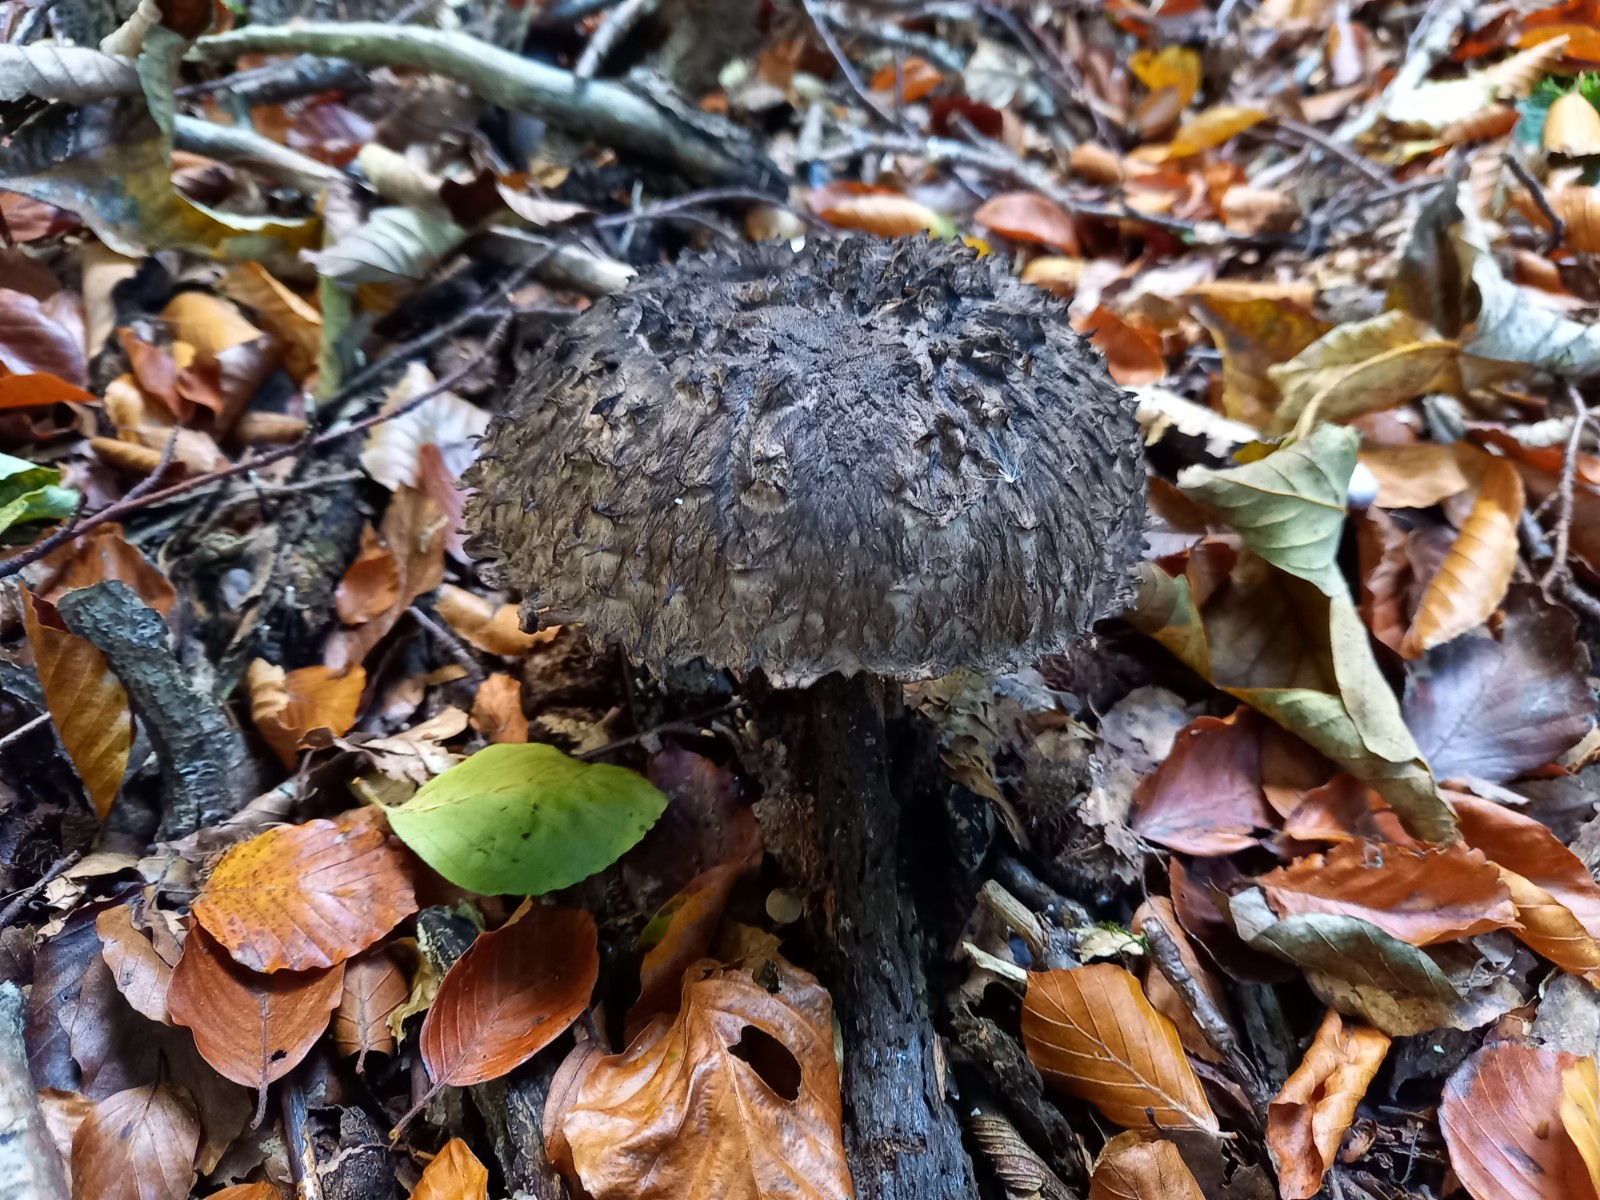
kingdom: Fungi
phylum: Basidiomycota
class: Agaricomycetes
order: Boletales
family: Boletaceae
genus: Strobilomyces
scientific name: Strobilomyces strobilaceus
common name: koglerørhat
